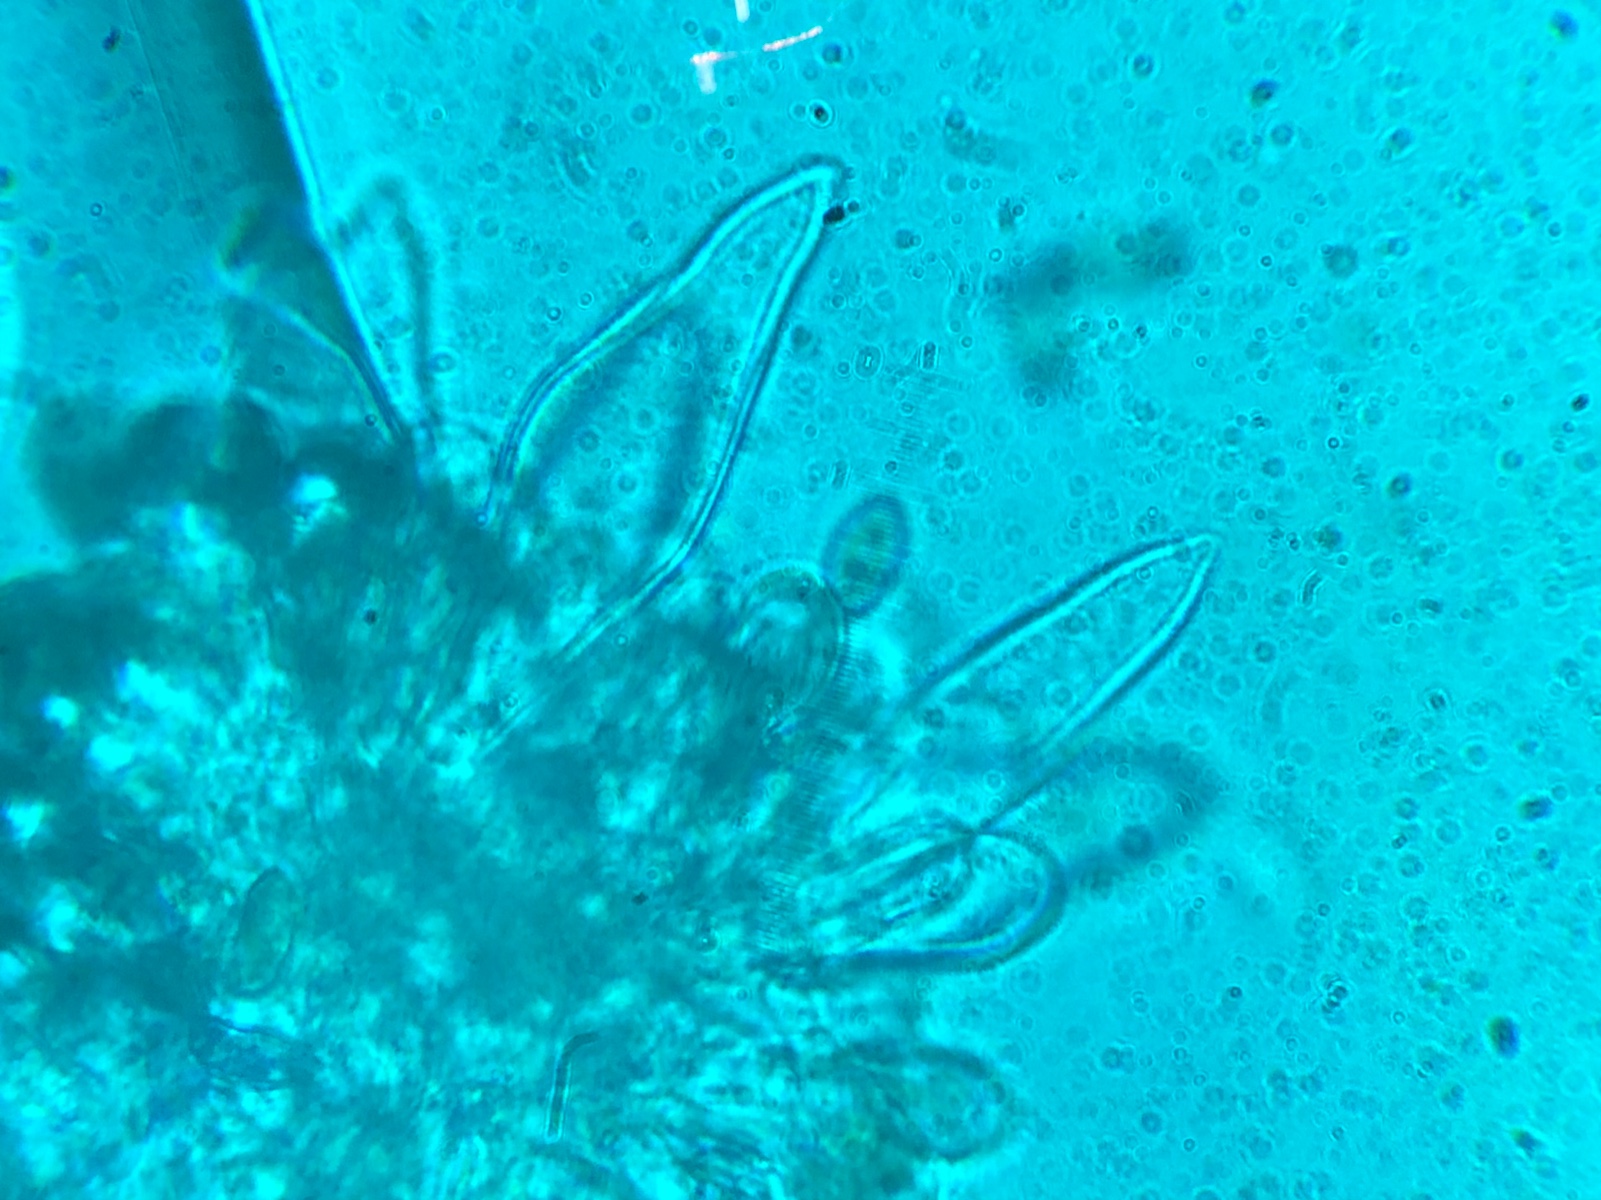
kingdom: Fungi
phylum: Basidiomycota
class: Agaricomycetes
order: Agaricales
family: Inocybaceae
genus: Inocybe
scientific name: Inocybe lacera
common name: laset trævlhat
